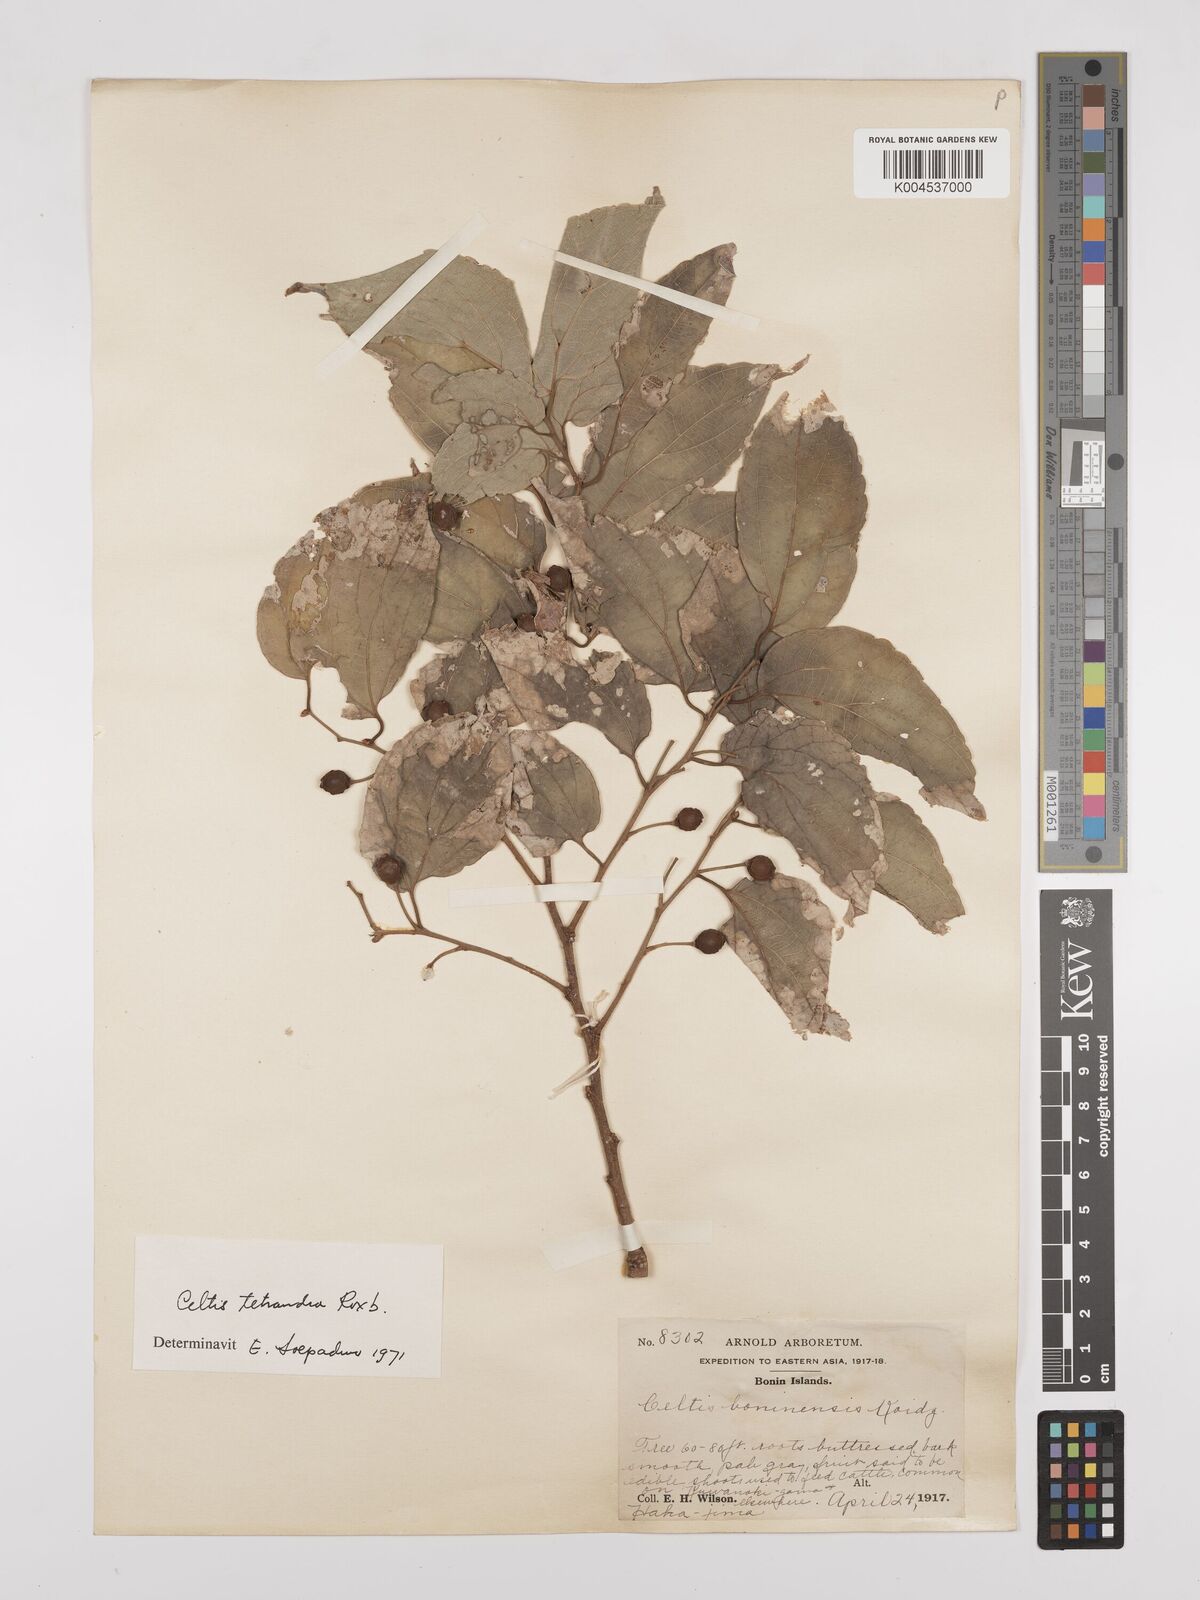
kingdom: Plantae
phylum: Tracheophyta
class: Magnoliopsida
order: Rosales
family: Cannabaceae
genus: Celtis
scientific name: Celtis tetrandra
